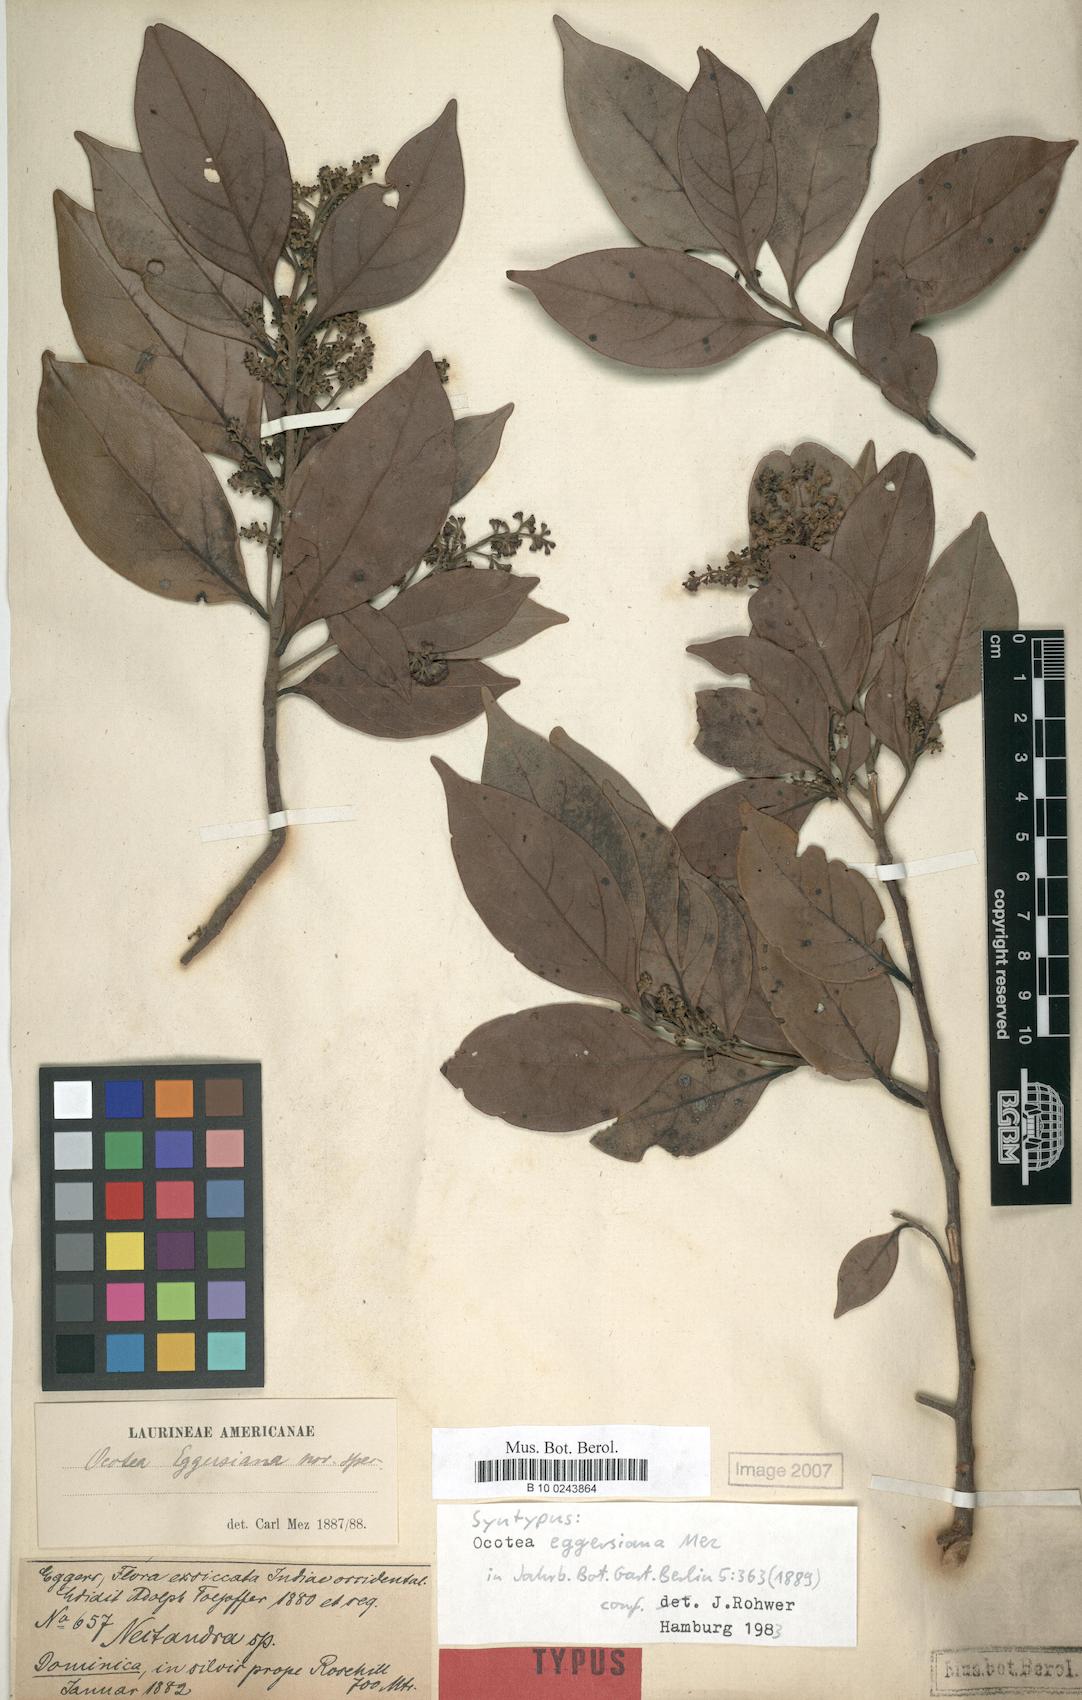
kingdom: Plantae
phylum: Tracheophyta
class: Magnoliopsida
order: Laurales
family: Lauraceae
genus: Ocotea
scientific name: Ocotea eggersiana
